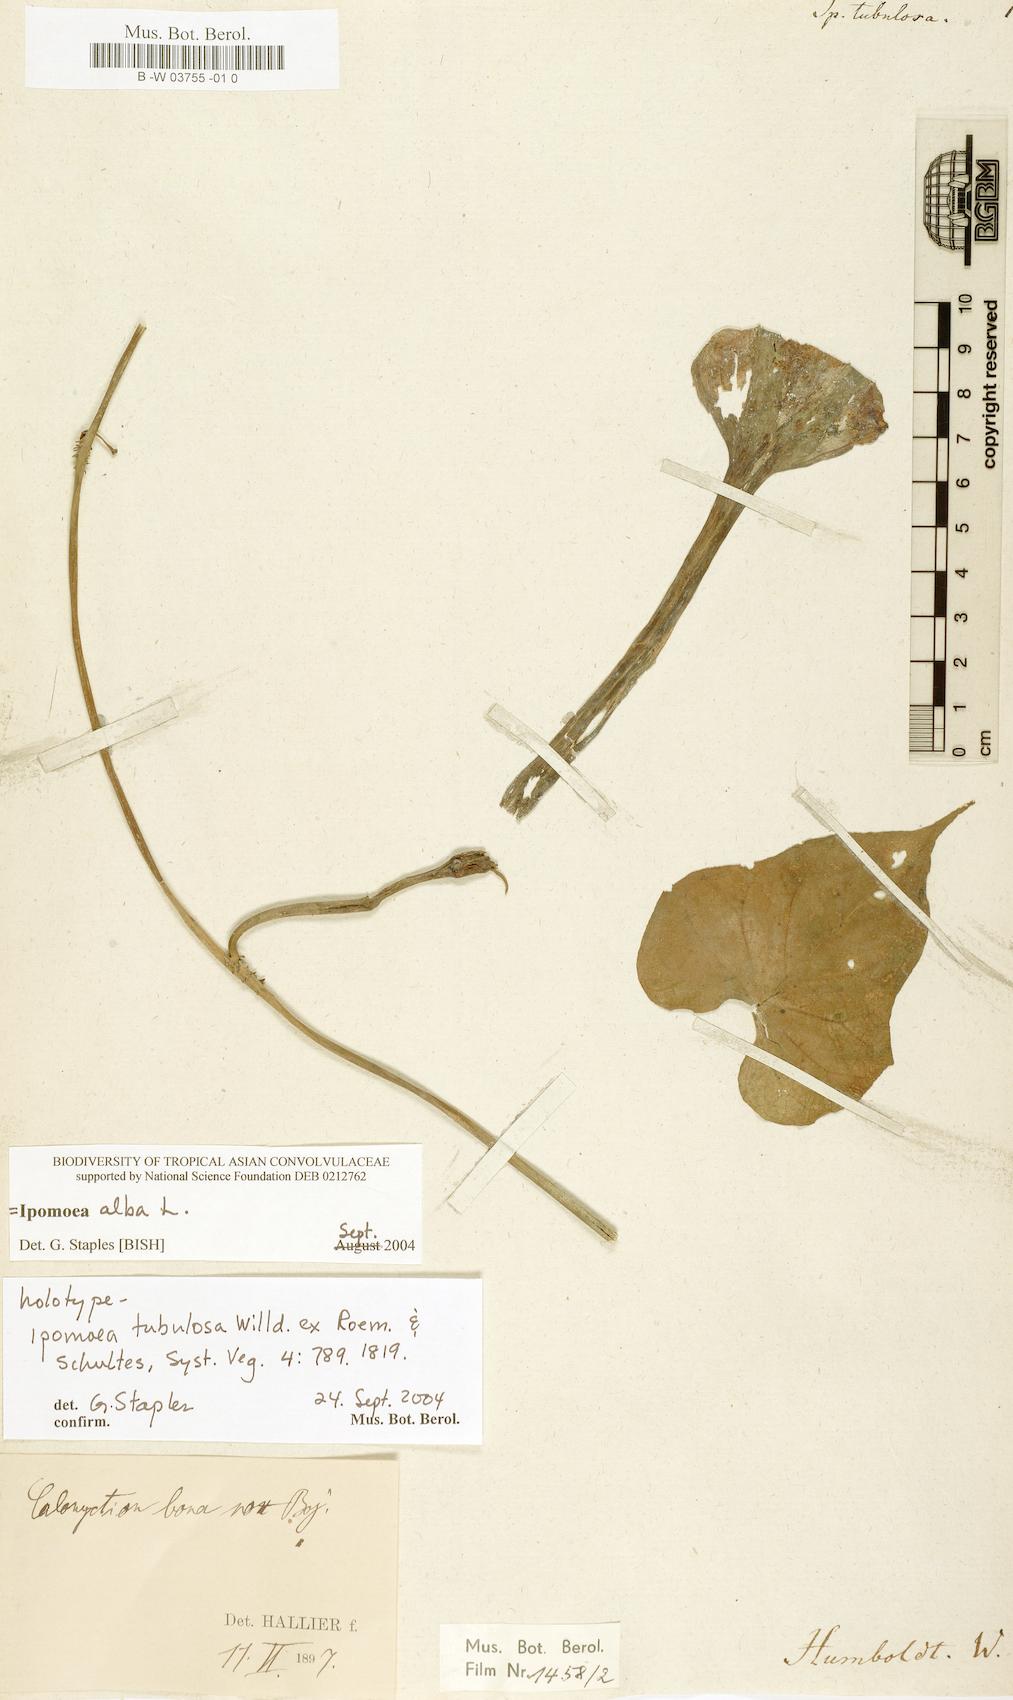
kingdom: Plantae
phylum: Tracheophyta
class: Magnoliopsida
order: Solanales
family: Convolvulaceae
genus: Ipomoea
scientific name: Ipomoea alba
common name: Moonflower
